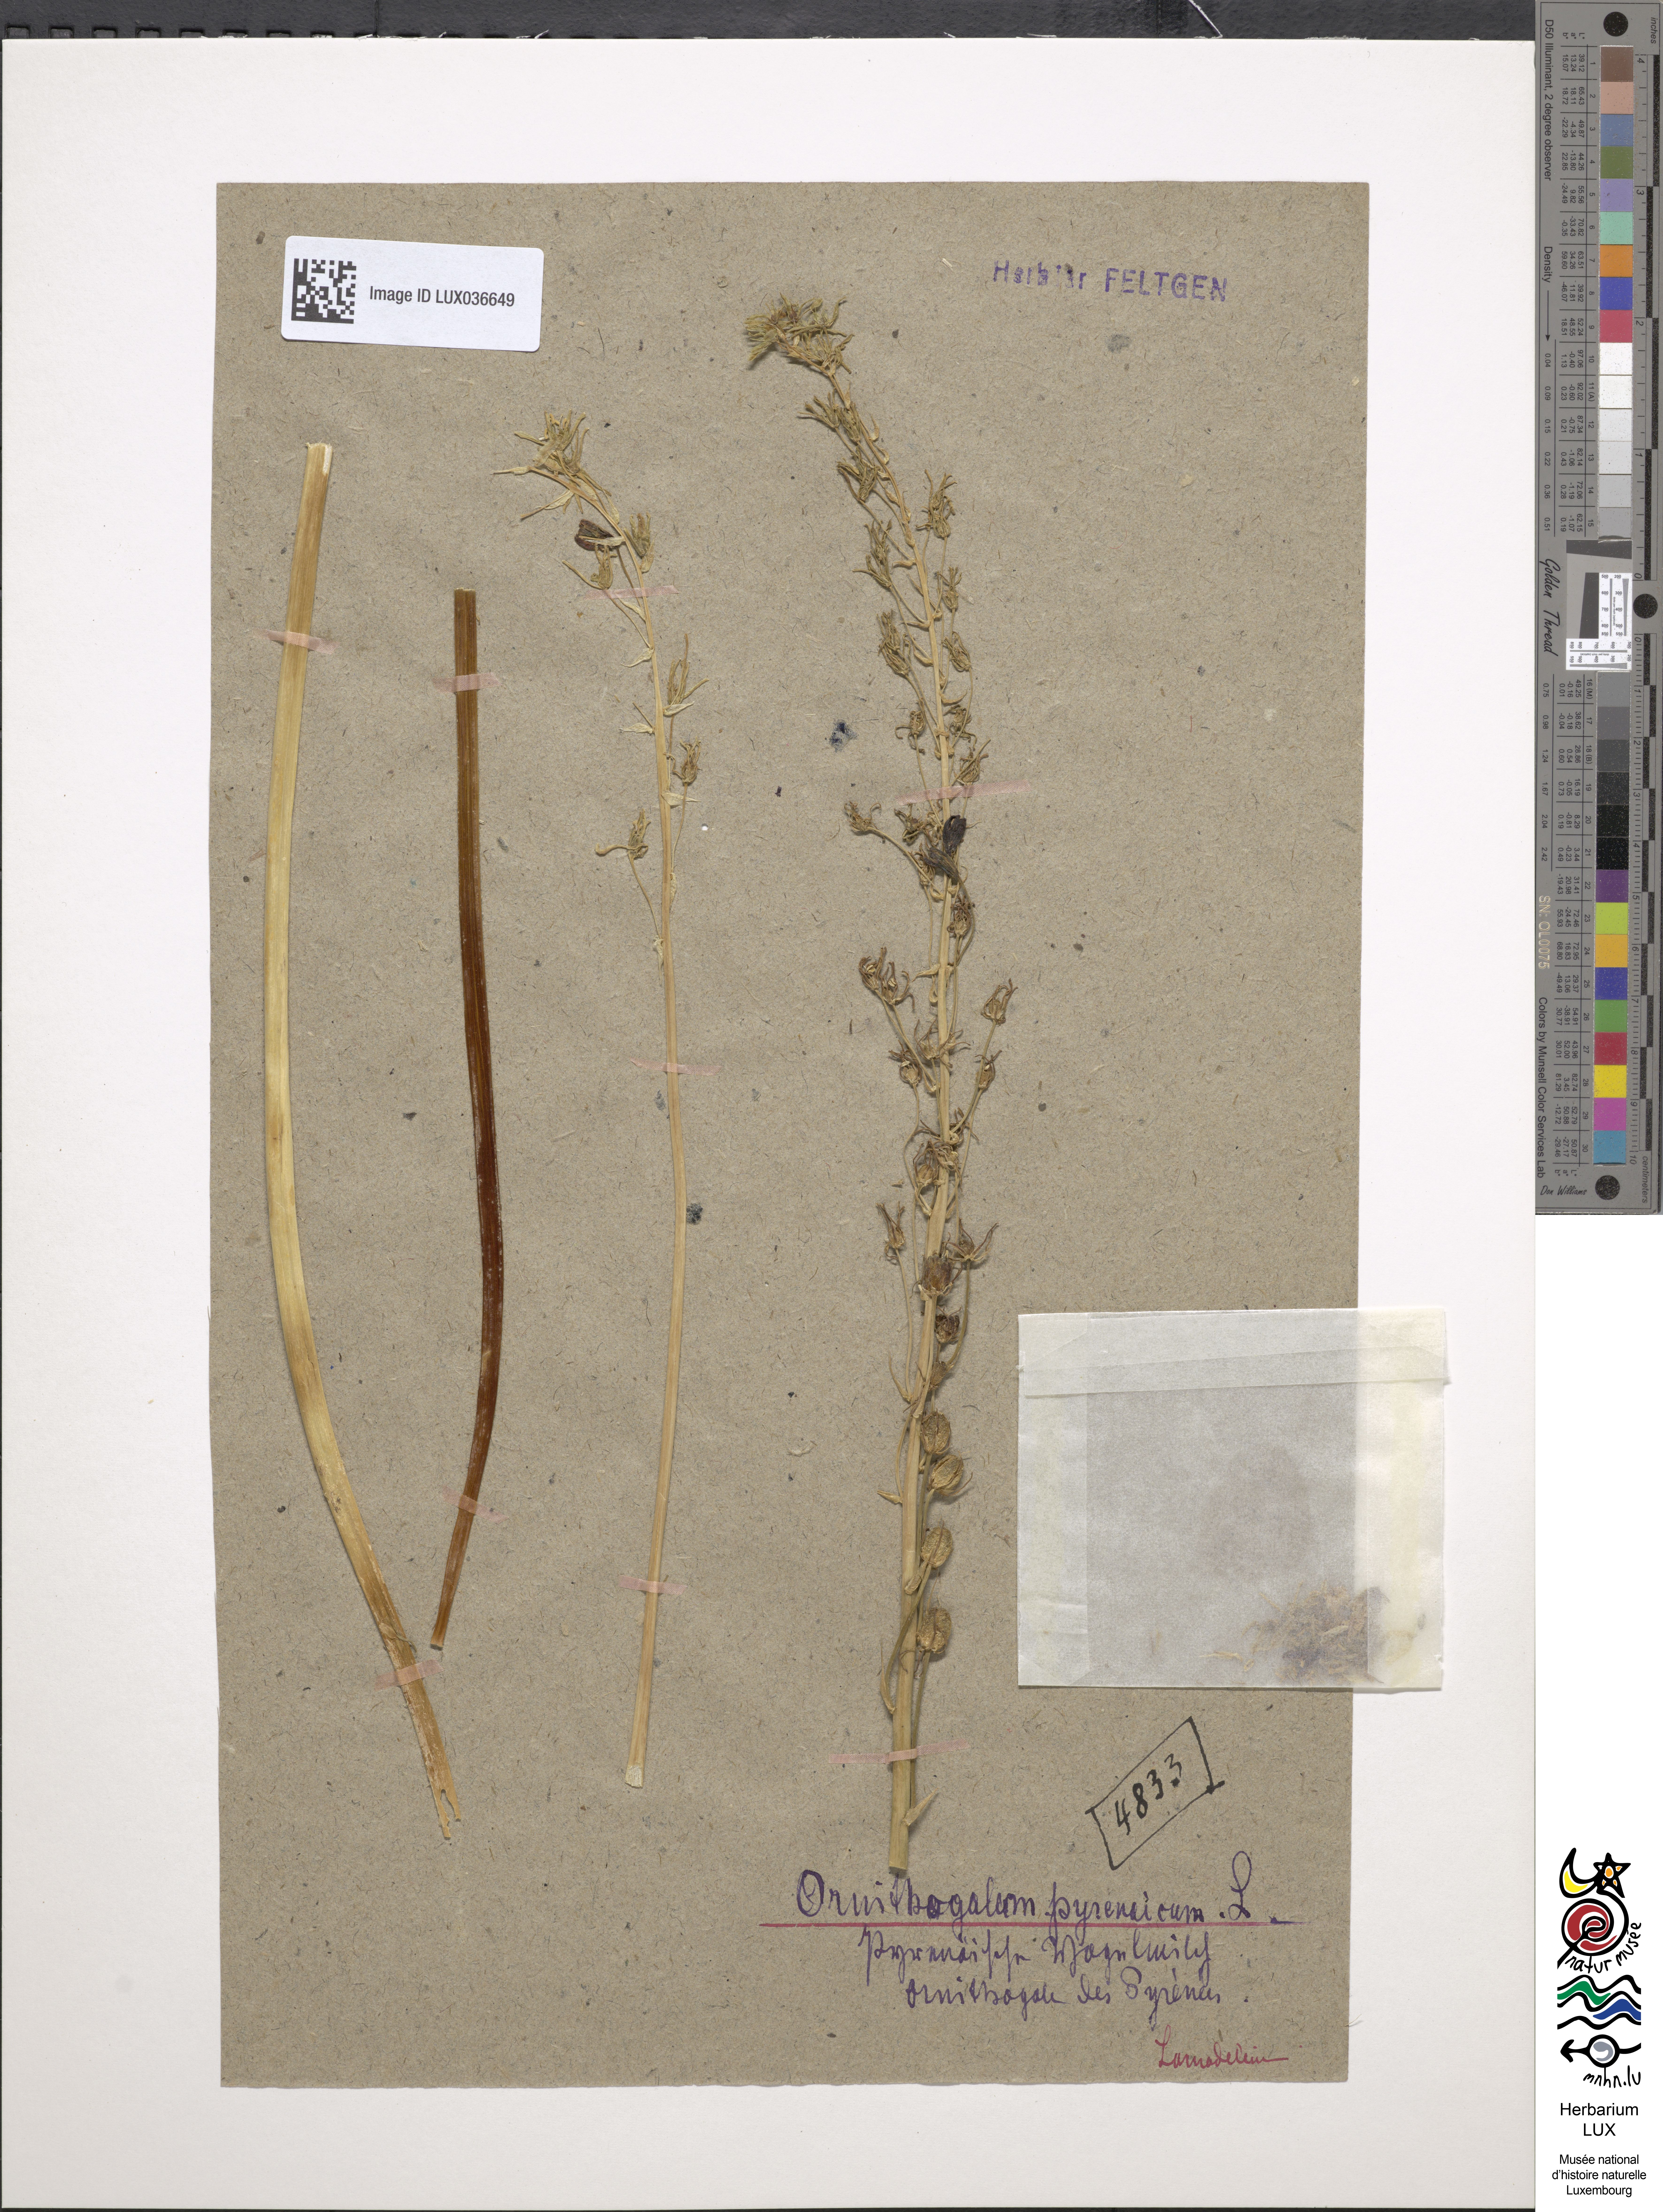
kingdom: Plantae
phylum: Tracheophyta
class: Liliopsida
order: Asparagales
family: Asparagaceae
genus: Ornithogalum
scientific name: Ornithogalum pyrenaicum
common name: Spiked star-of-bethlehem
